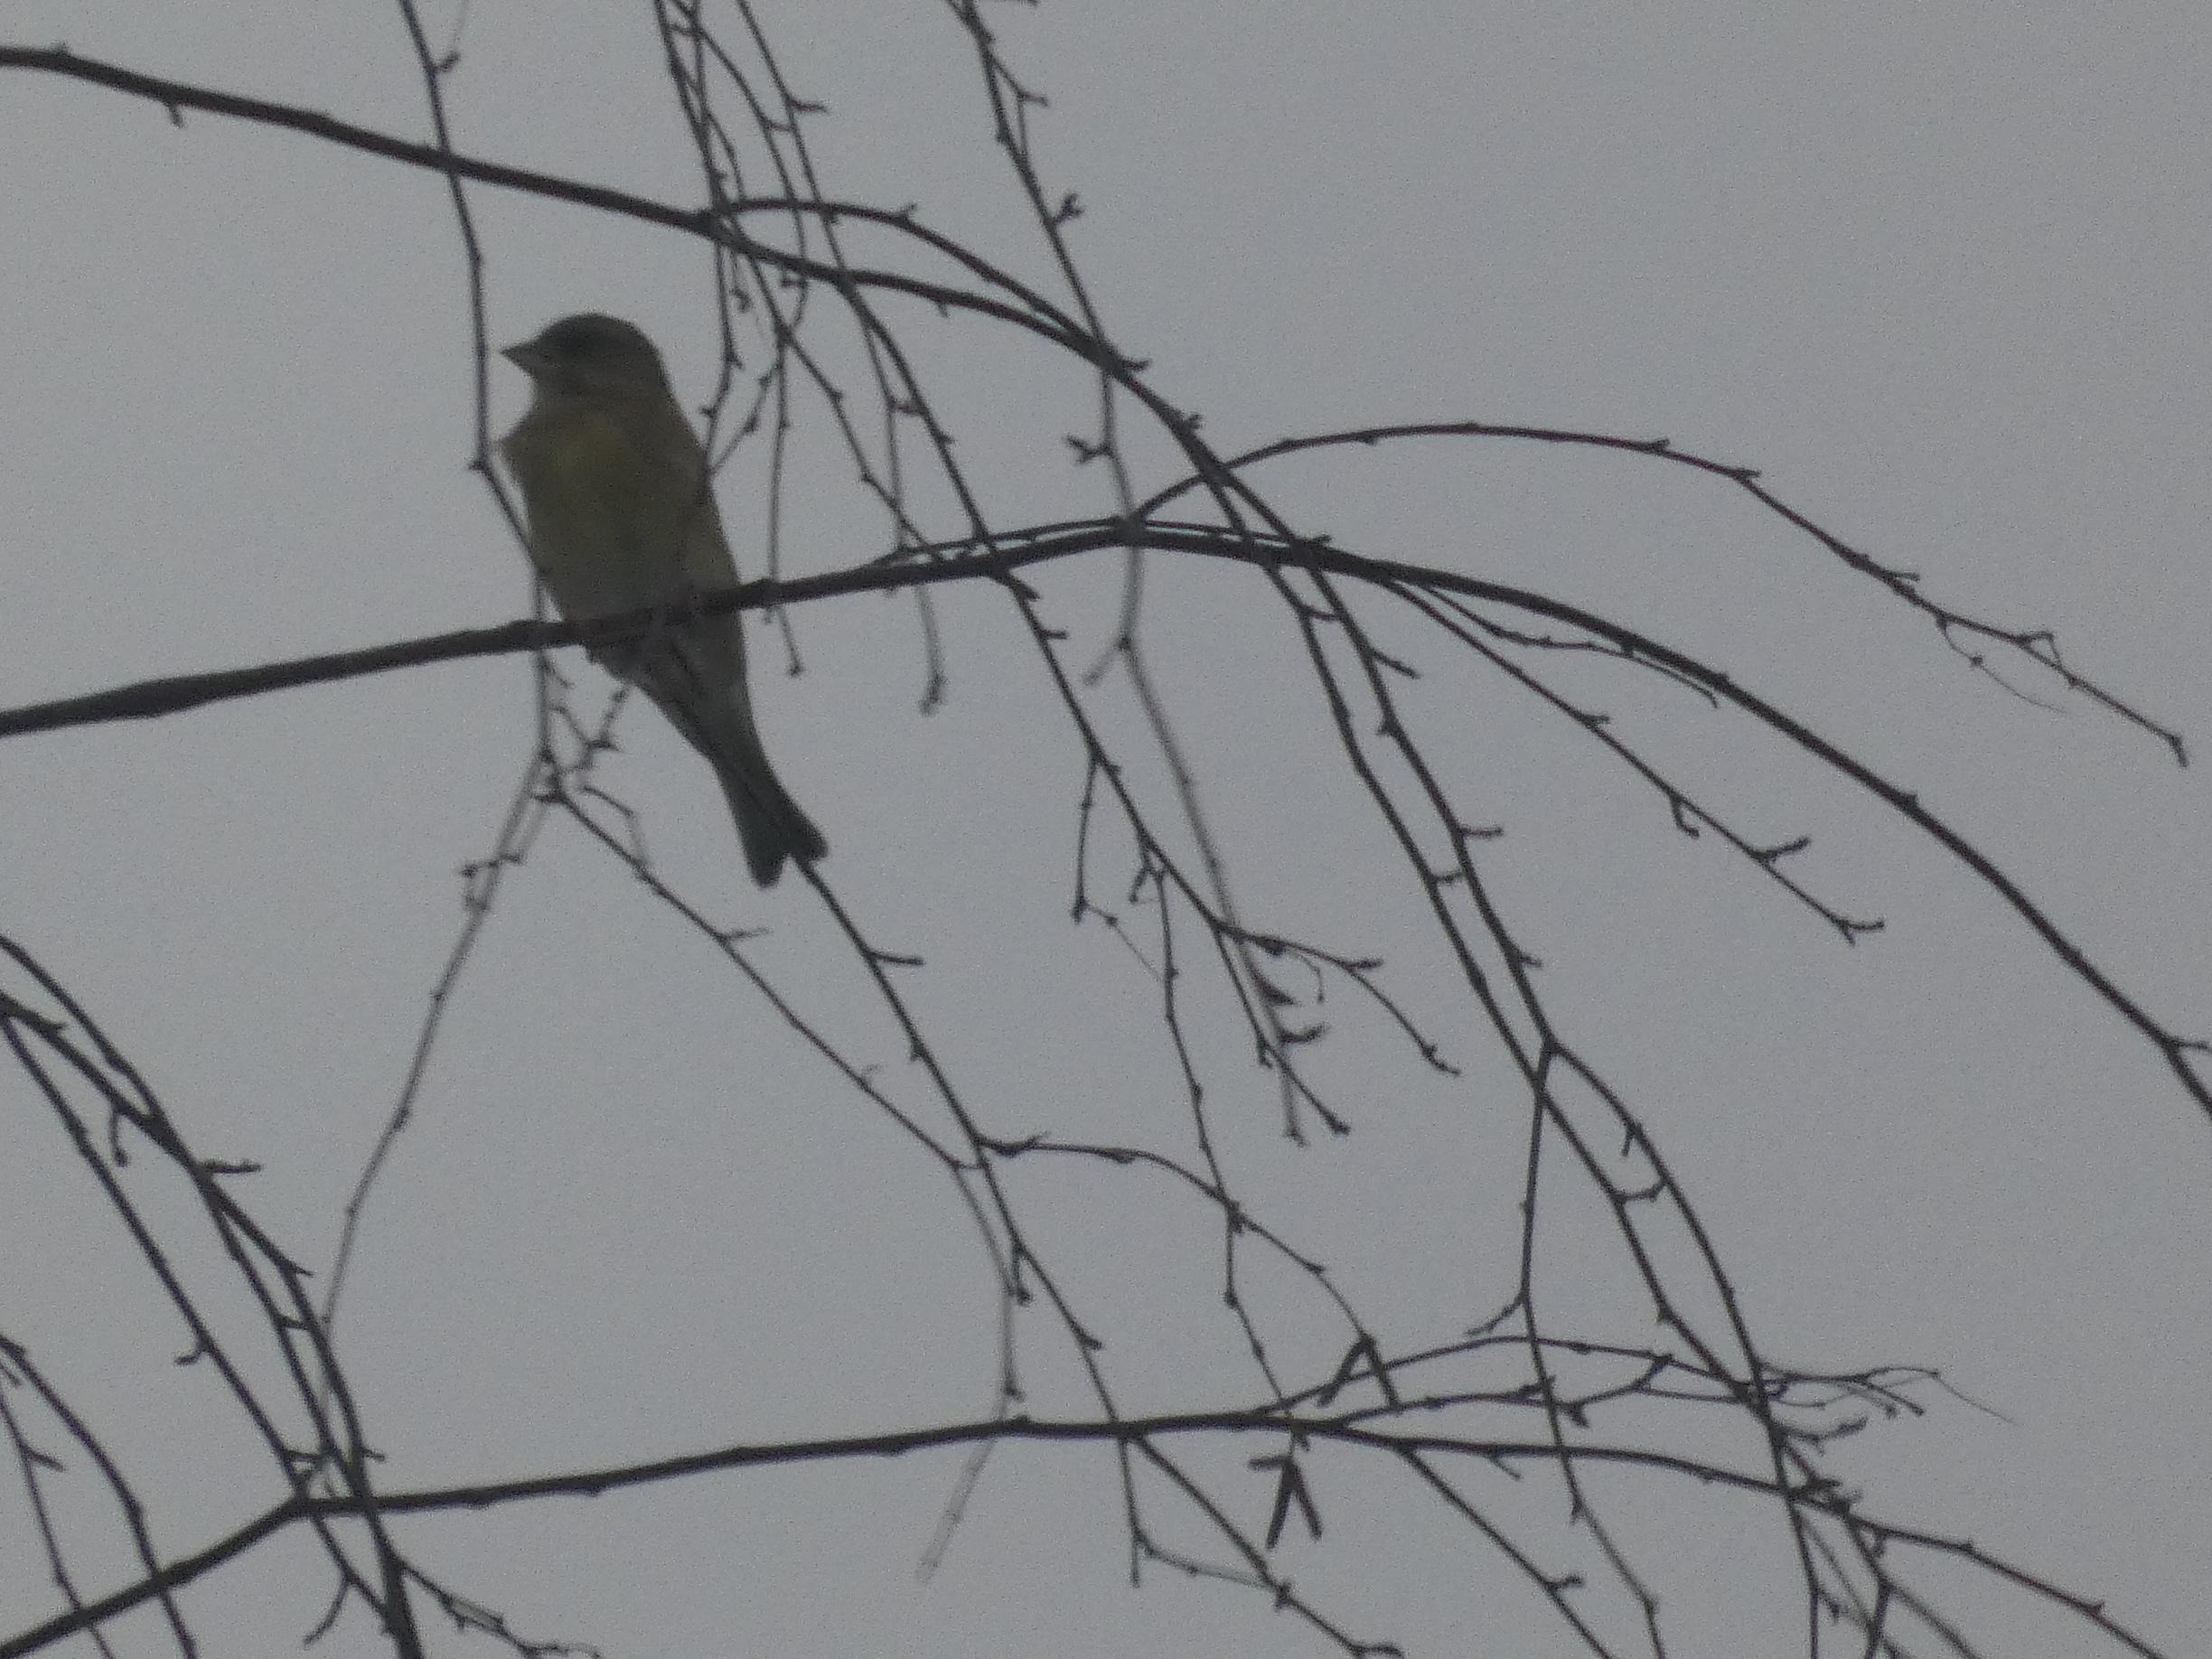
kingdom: Plantae
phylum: Tracheophyta
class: Liliopsida
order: Poales
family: Poaceae
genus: Chloris
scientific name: Chloris chloris
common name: Grønirisk
